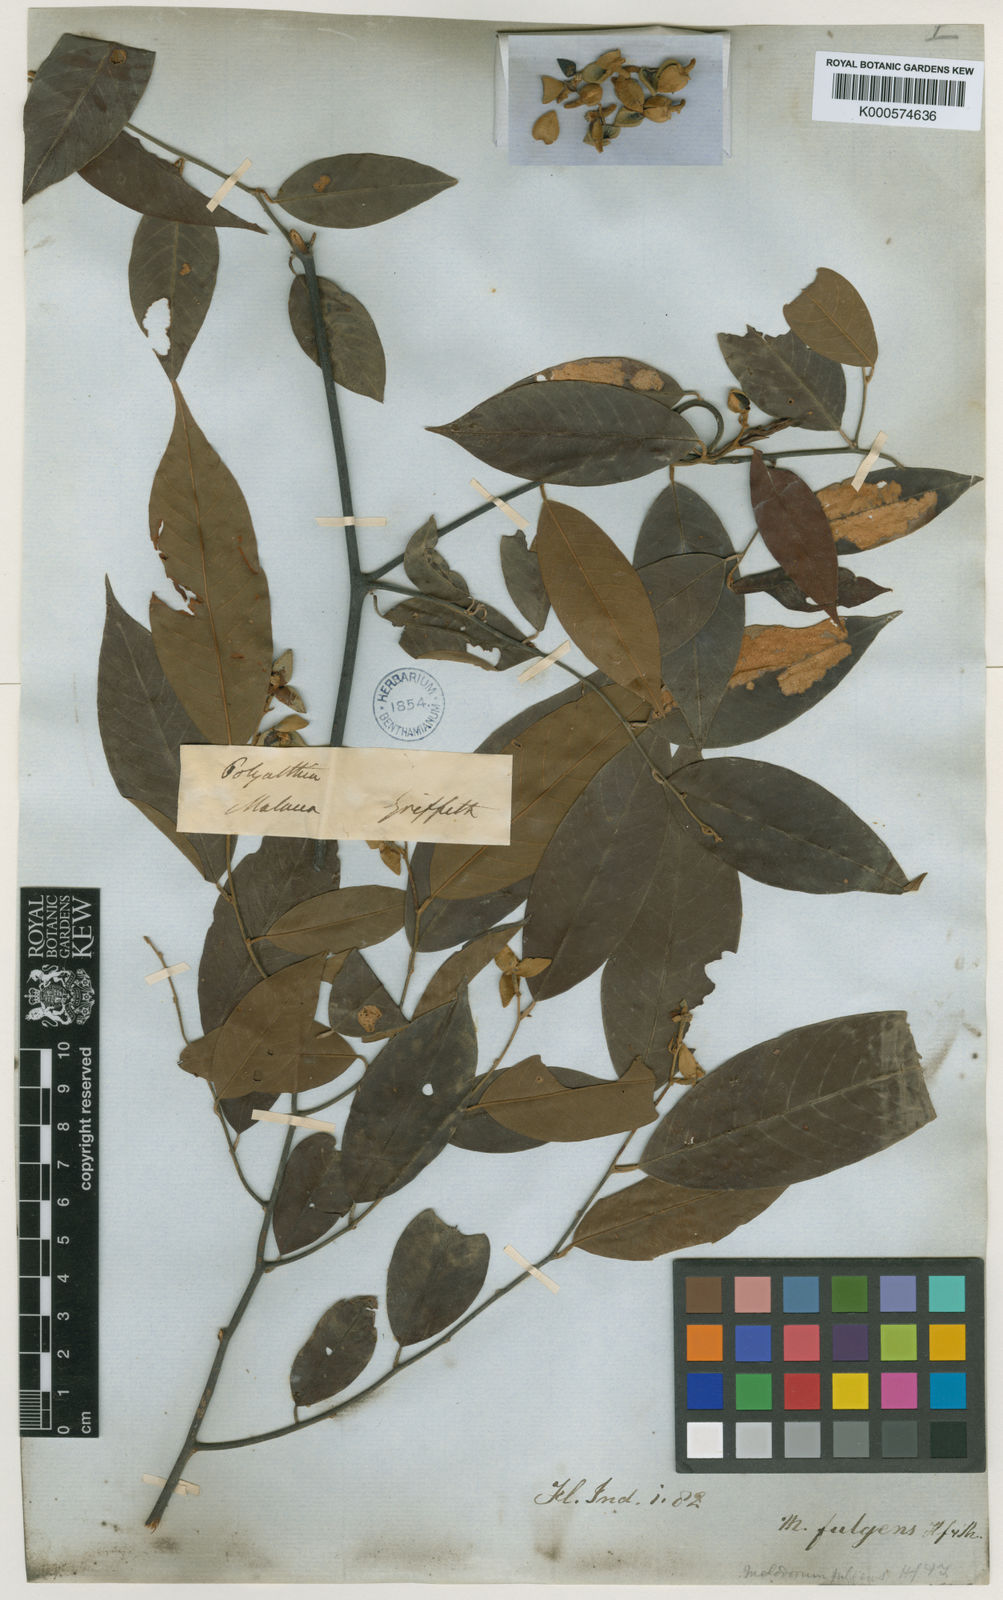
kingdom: Plantae
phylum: Tracheophyta
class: Magnoliopsida
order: Magnoliales
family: Annonaceae
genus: Fissistigma
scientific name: Fissistigma fulgens
